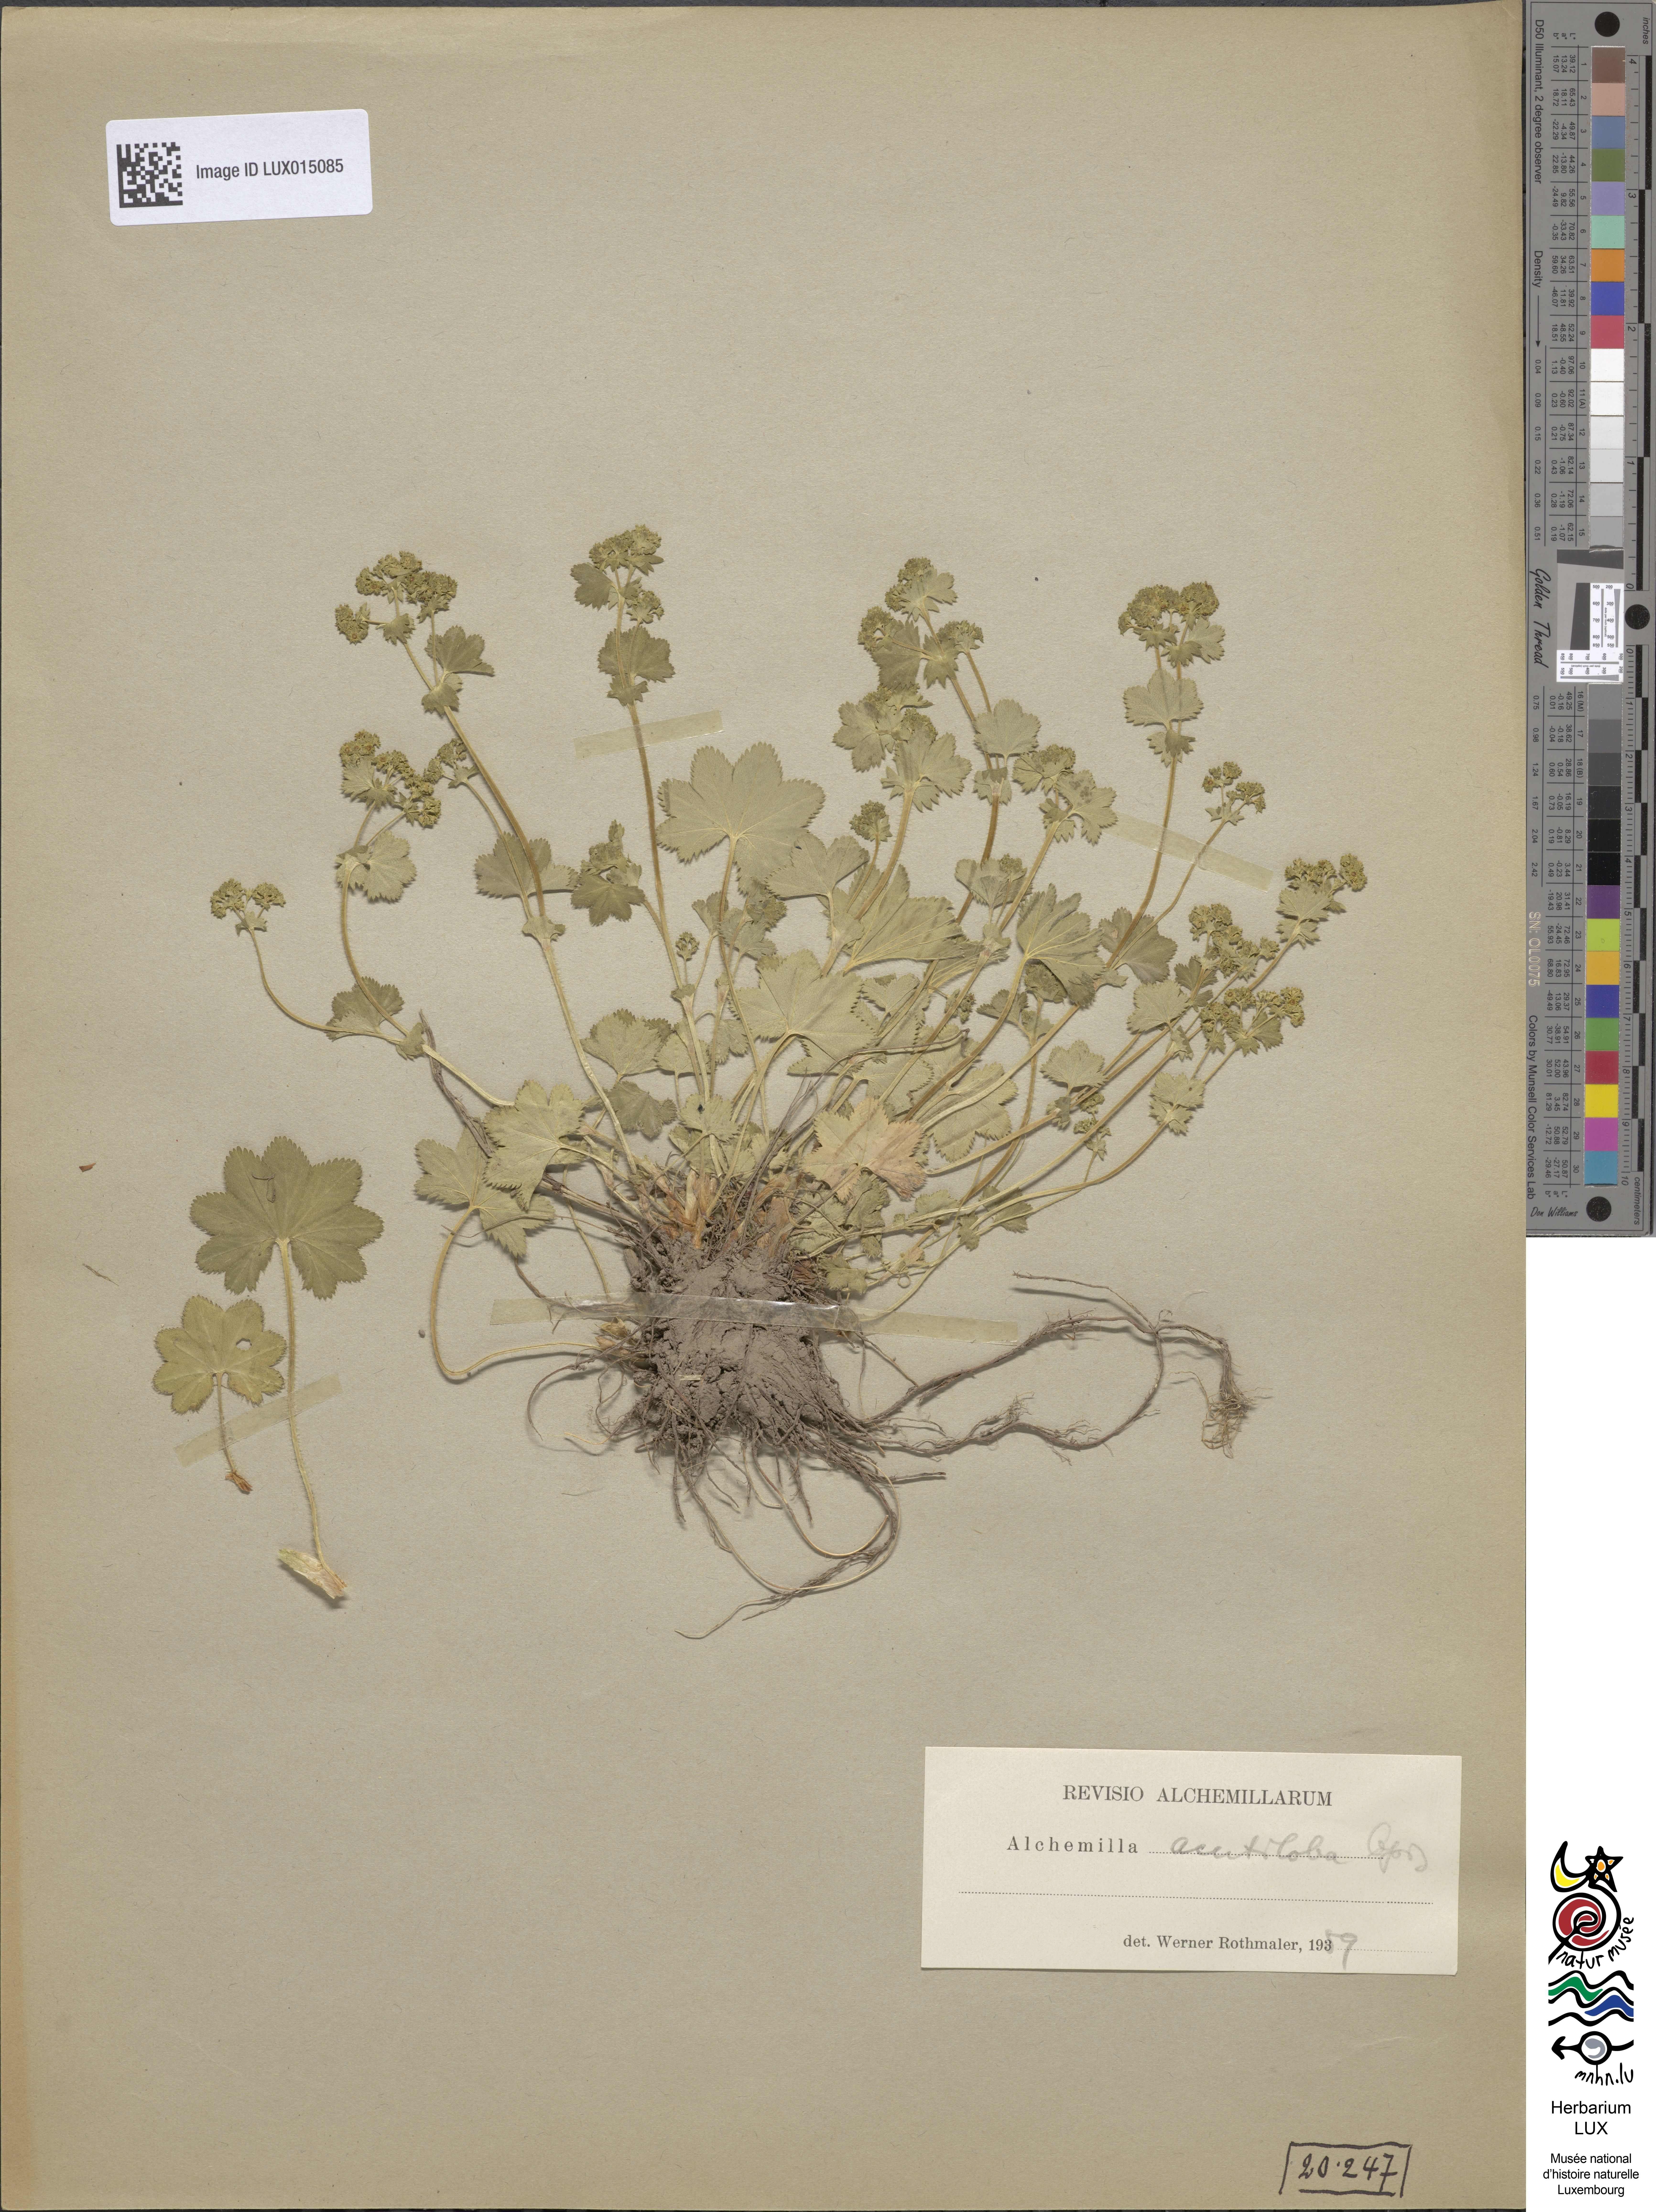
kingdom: Plantae
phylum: Tracheophyta
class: Magnoliopsida
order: Rosales
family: Rosaceae
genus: Alchemilla
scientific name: Alchemilla xanthochlora
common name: Intermediate lady's-mantle
